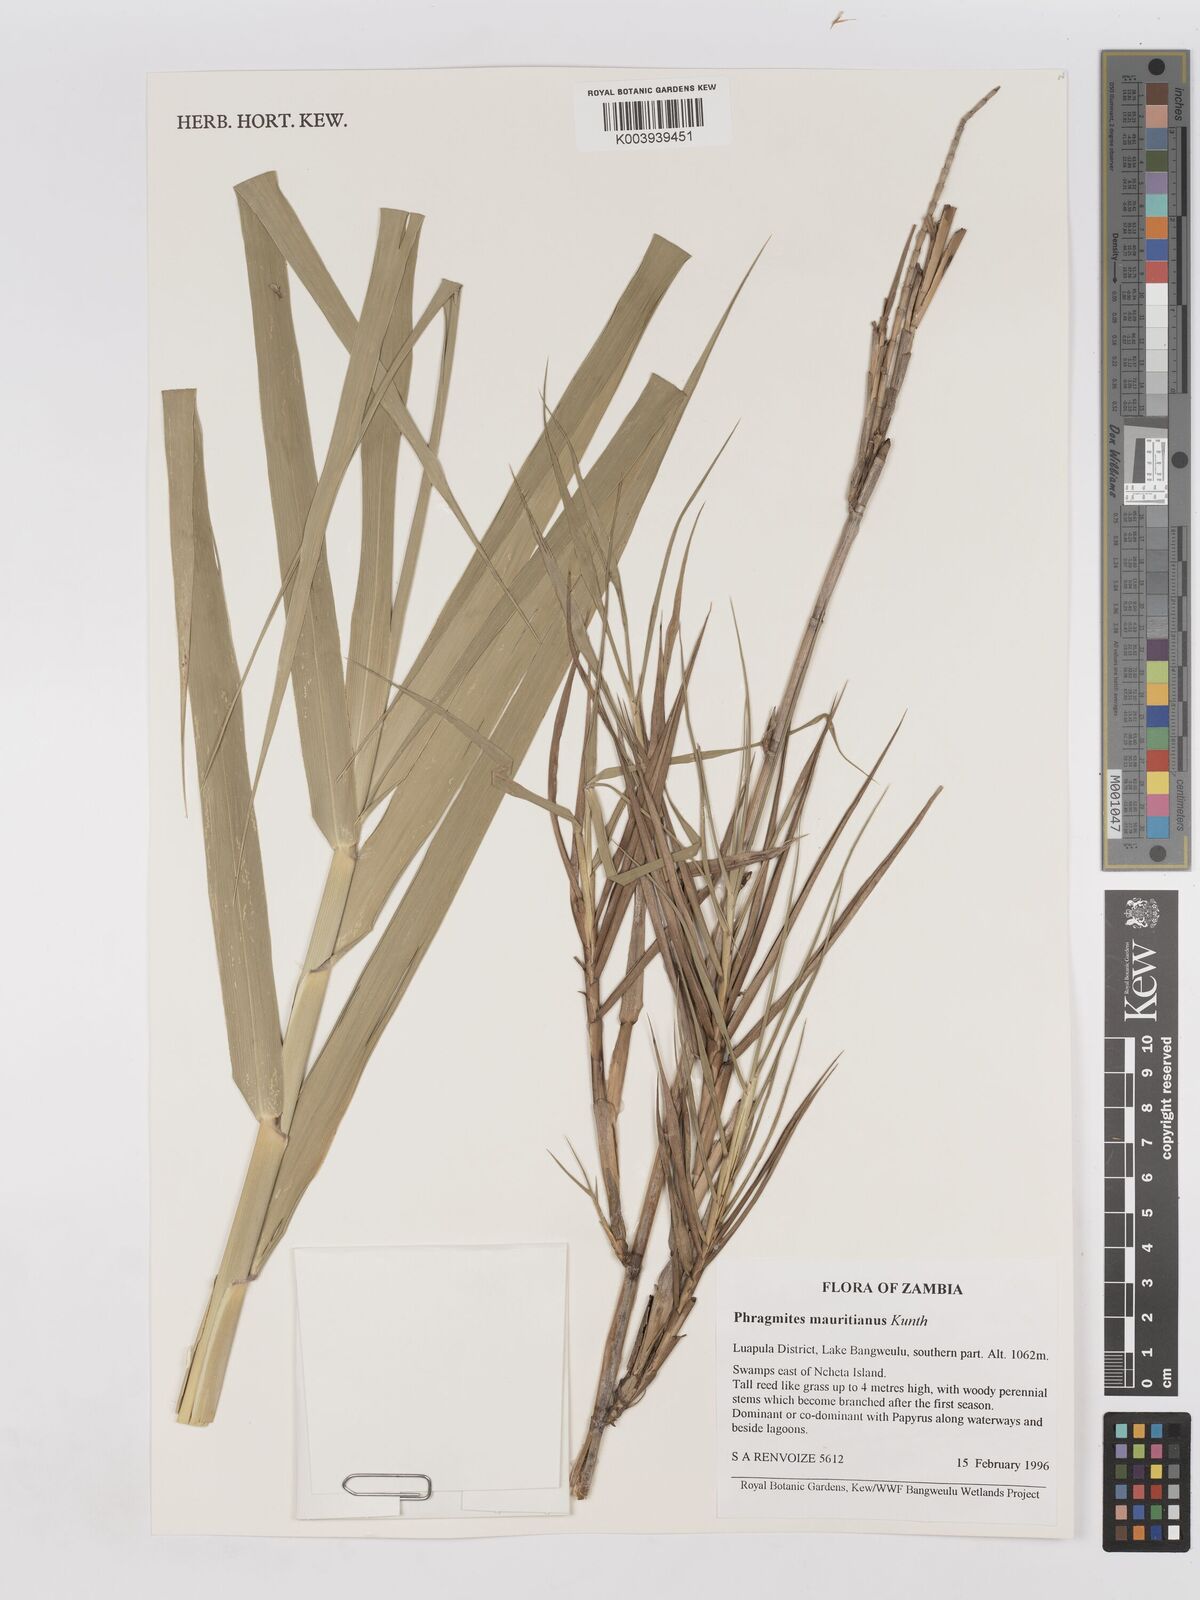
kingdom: Plantae
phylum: Tracheophyta
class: Liliopsida
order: Poales
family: Poaceae
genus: Phragmites
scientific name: Phragmites mauritianus
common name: Reed grass
